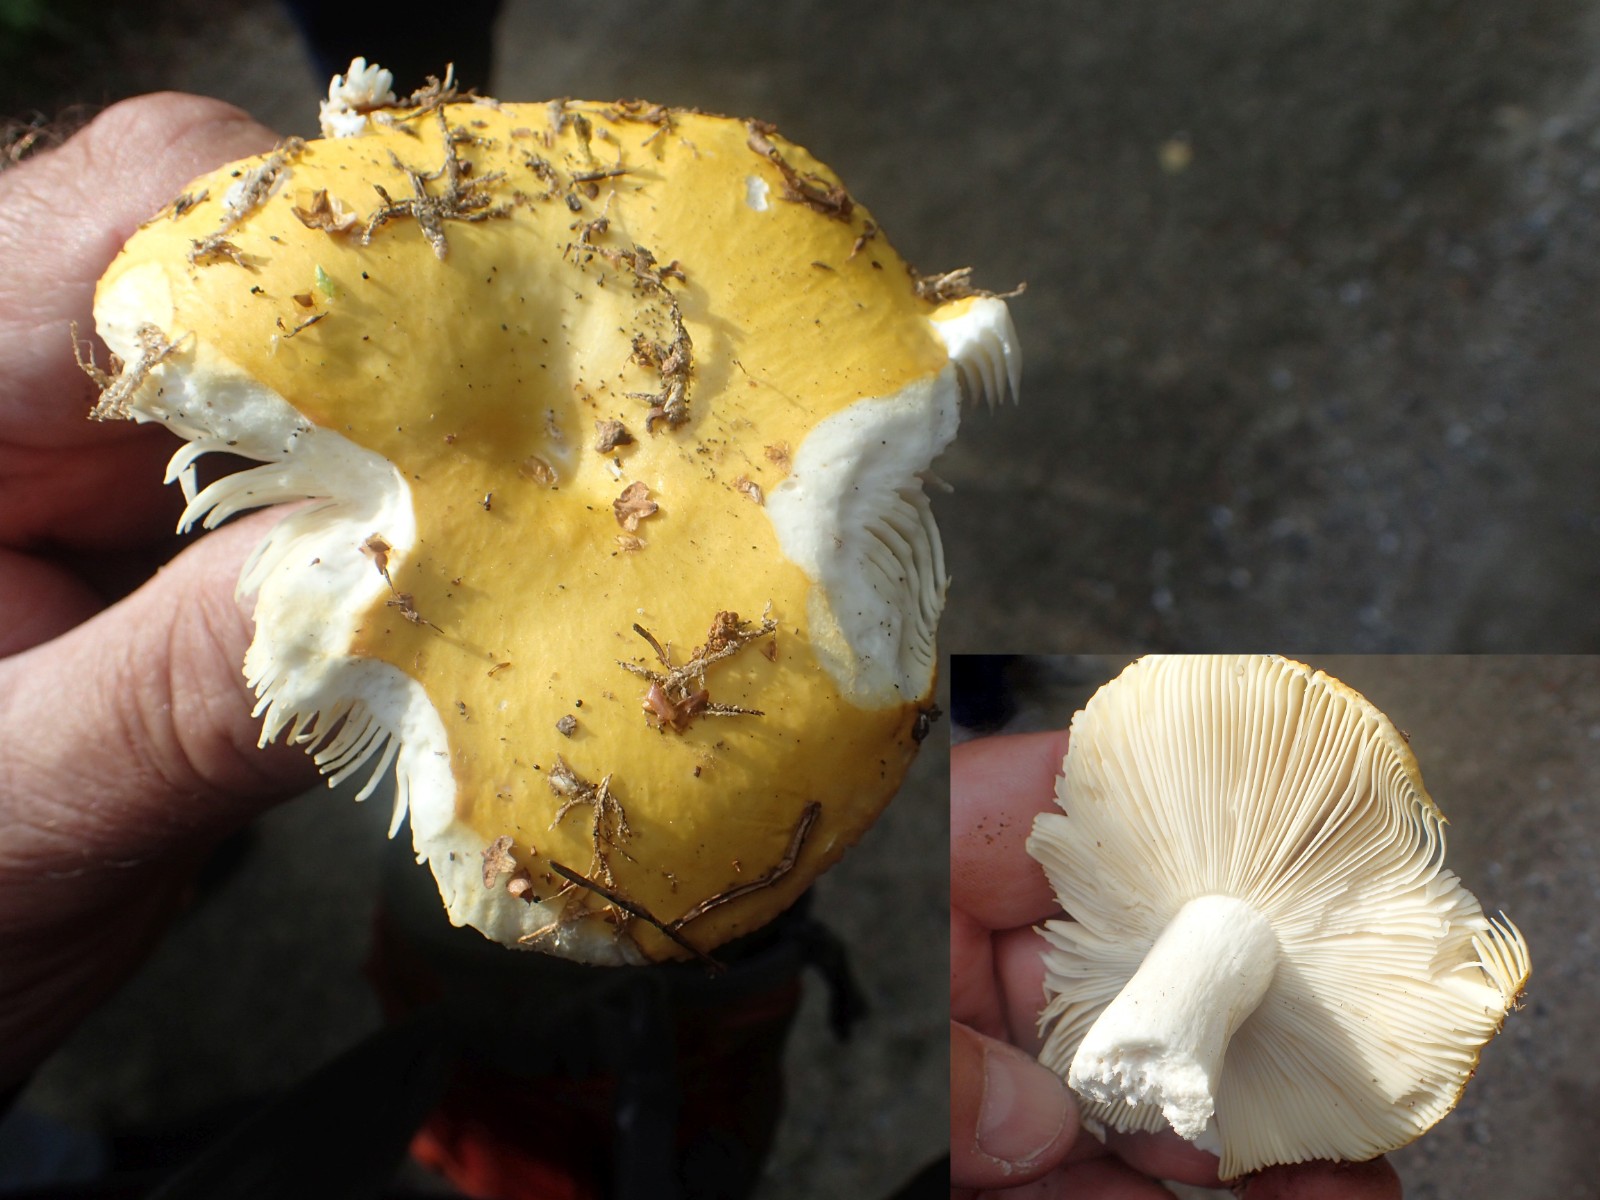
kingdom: Fungi
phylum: Basidiomycota
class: Agaricomycetes
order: Russulales
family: Russulaceae
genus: Russula
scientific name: Russula claroflava
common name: birke-skørhat
